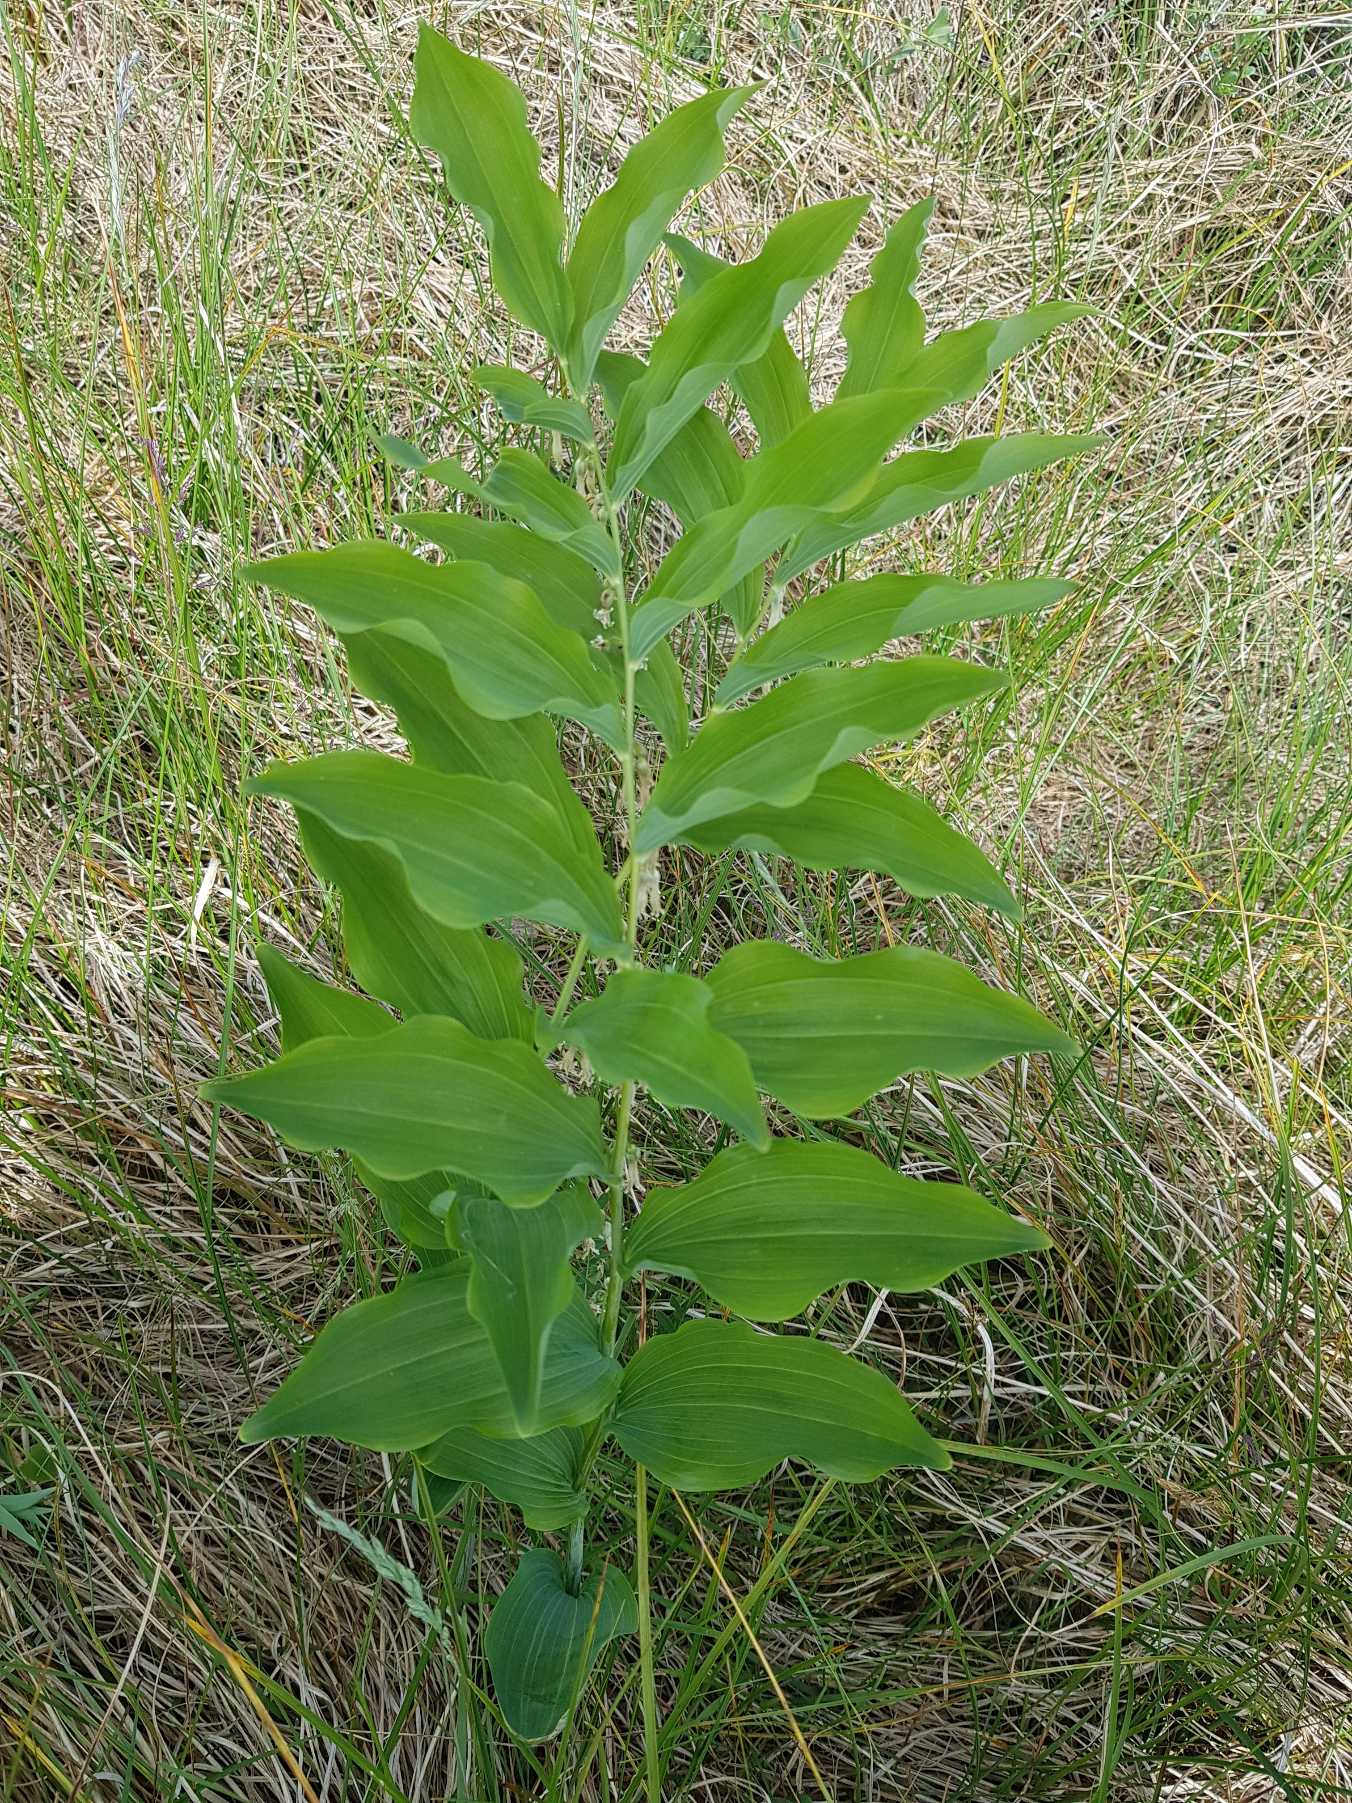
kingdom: Plantae
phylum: Tracheophyta
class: Liliopsida
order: Asparagales
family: Asparagaceae
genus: Polygonatum
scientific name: Polygonatum multiflorum
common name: Stor konval
